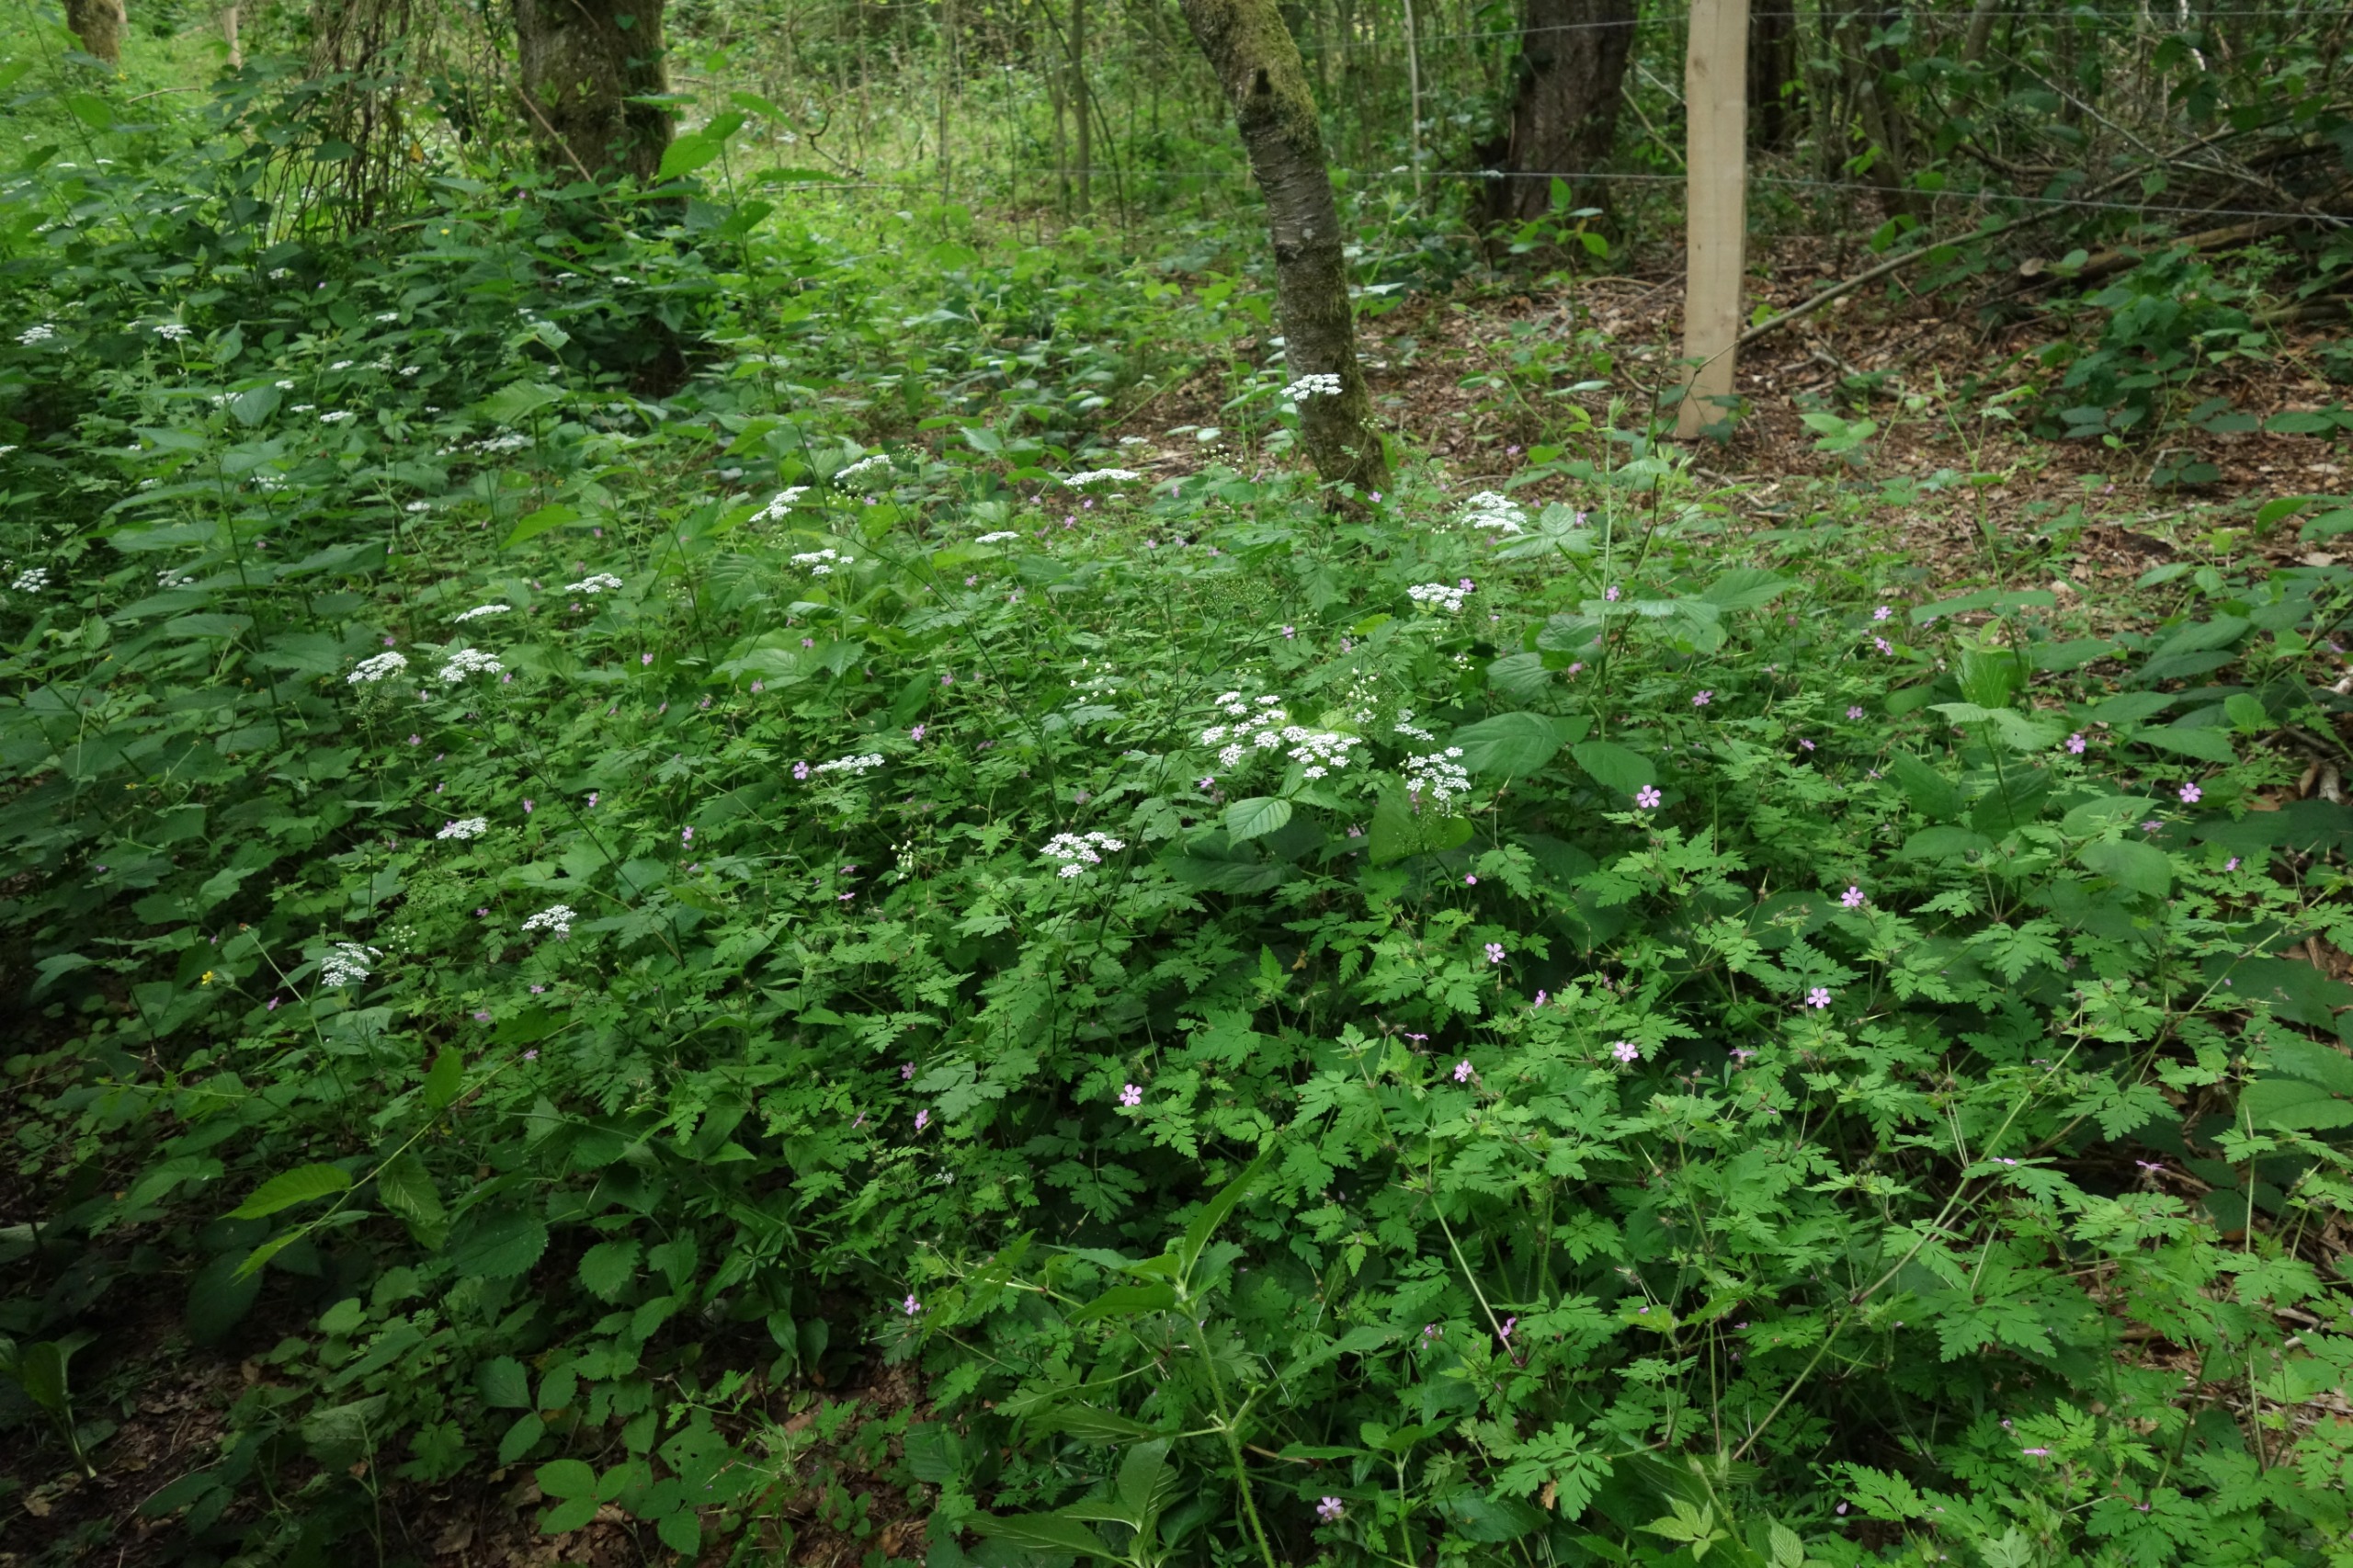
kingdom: Plantae
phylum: Tracheophyta
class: Magnoliopsida
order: Geraniales
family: Geraniaceae
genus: Geranium
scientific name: Geranium robertianum
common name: Stinkende storkenæb
